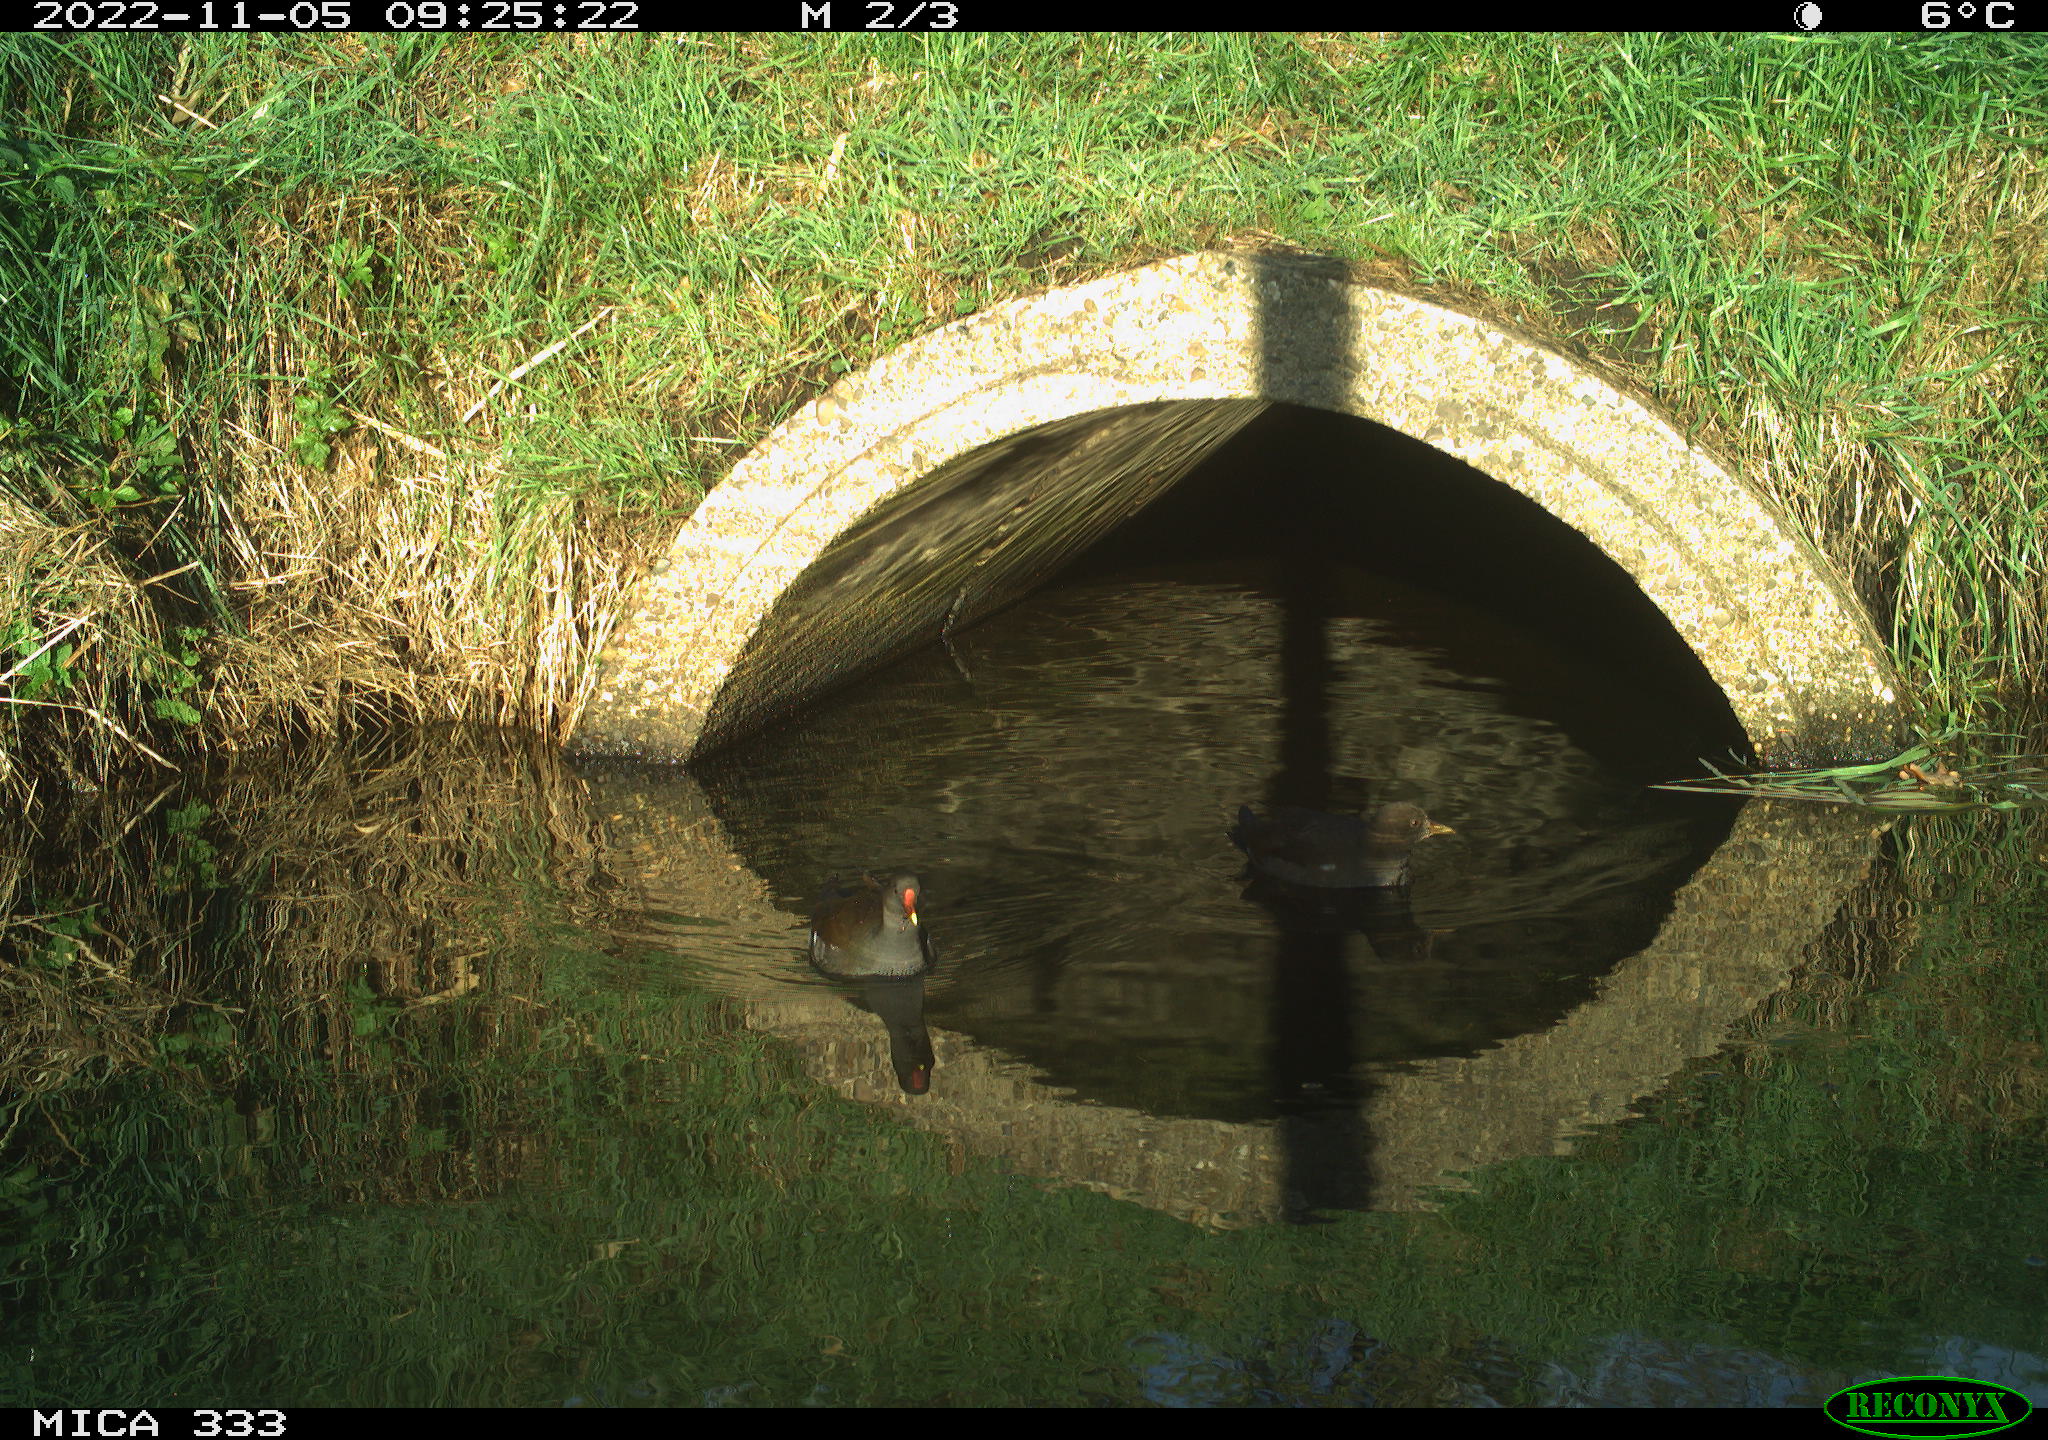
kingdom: Animalia
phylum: Chordata
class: Aves
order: Gruiformes
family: Rallidae
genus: Gallinula
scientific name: Gallinula chloropus
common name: Common moorhen
